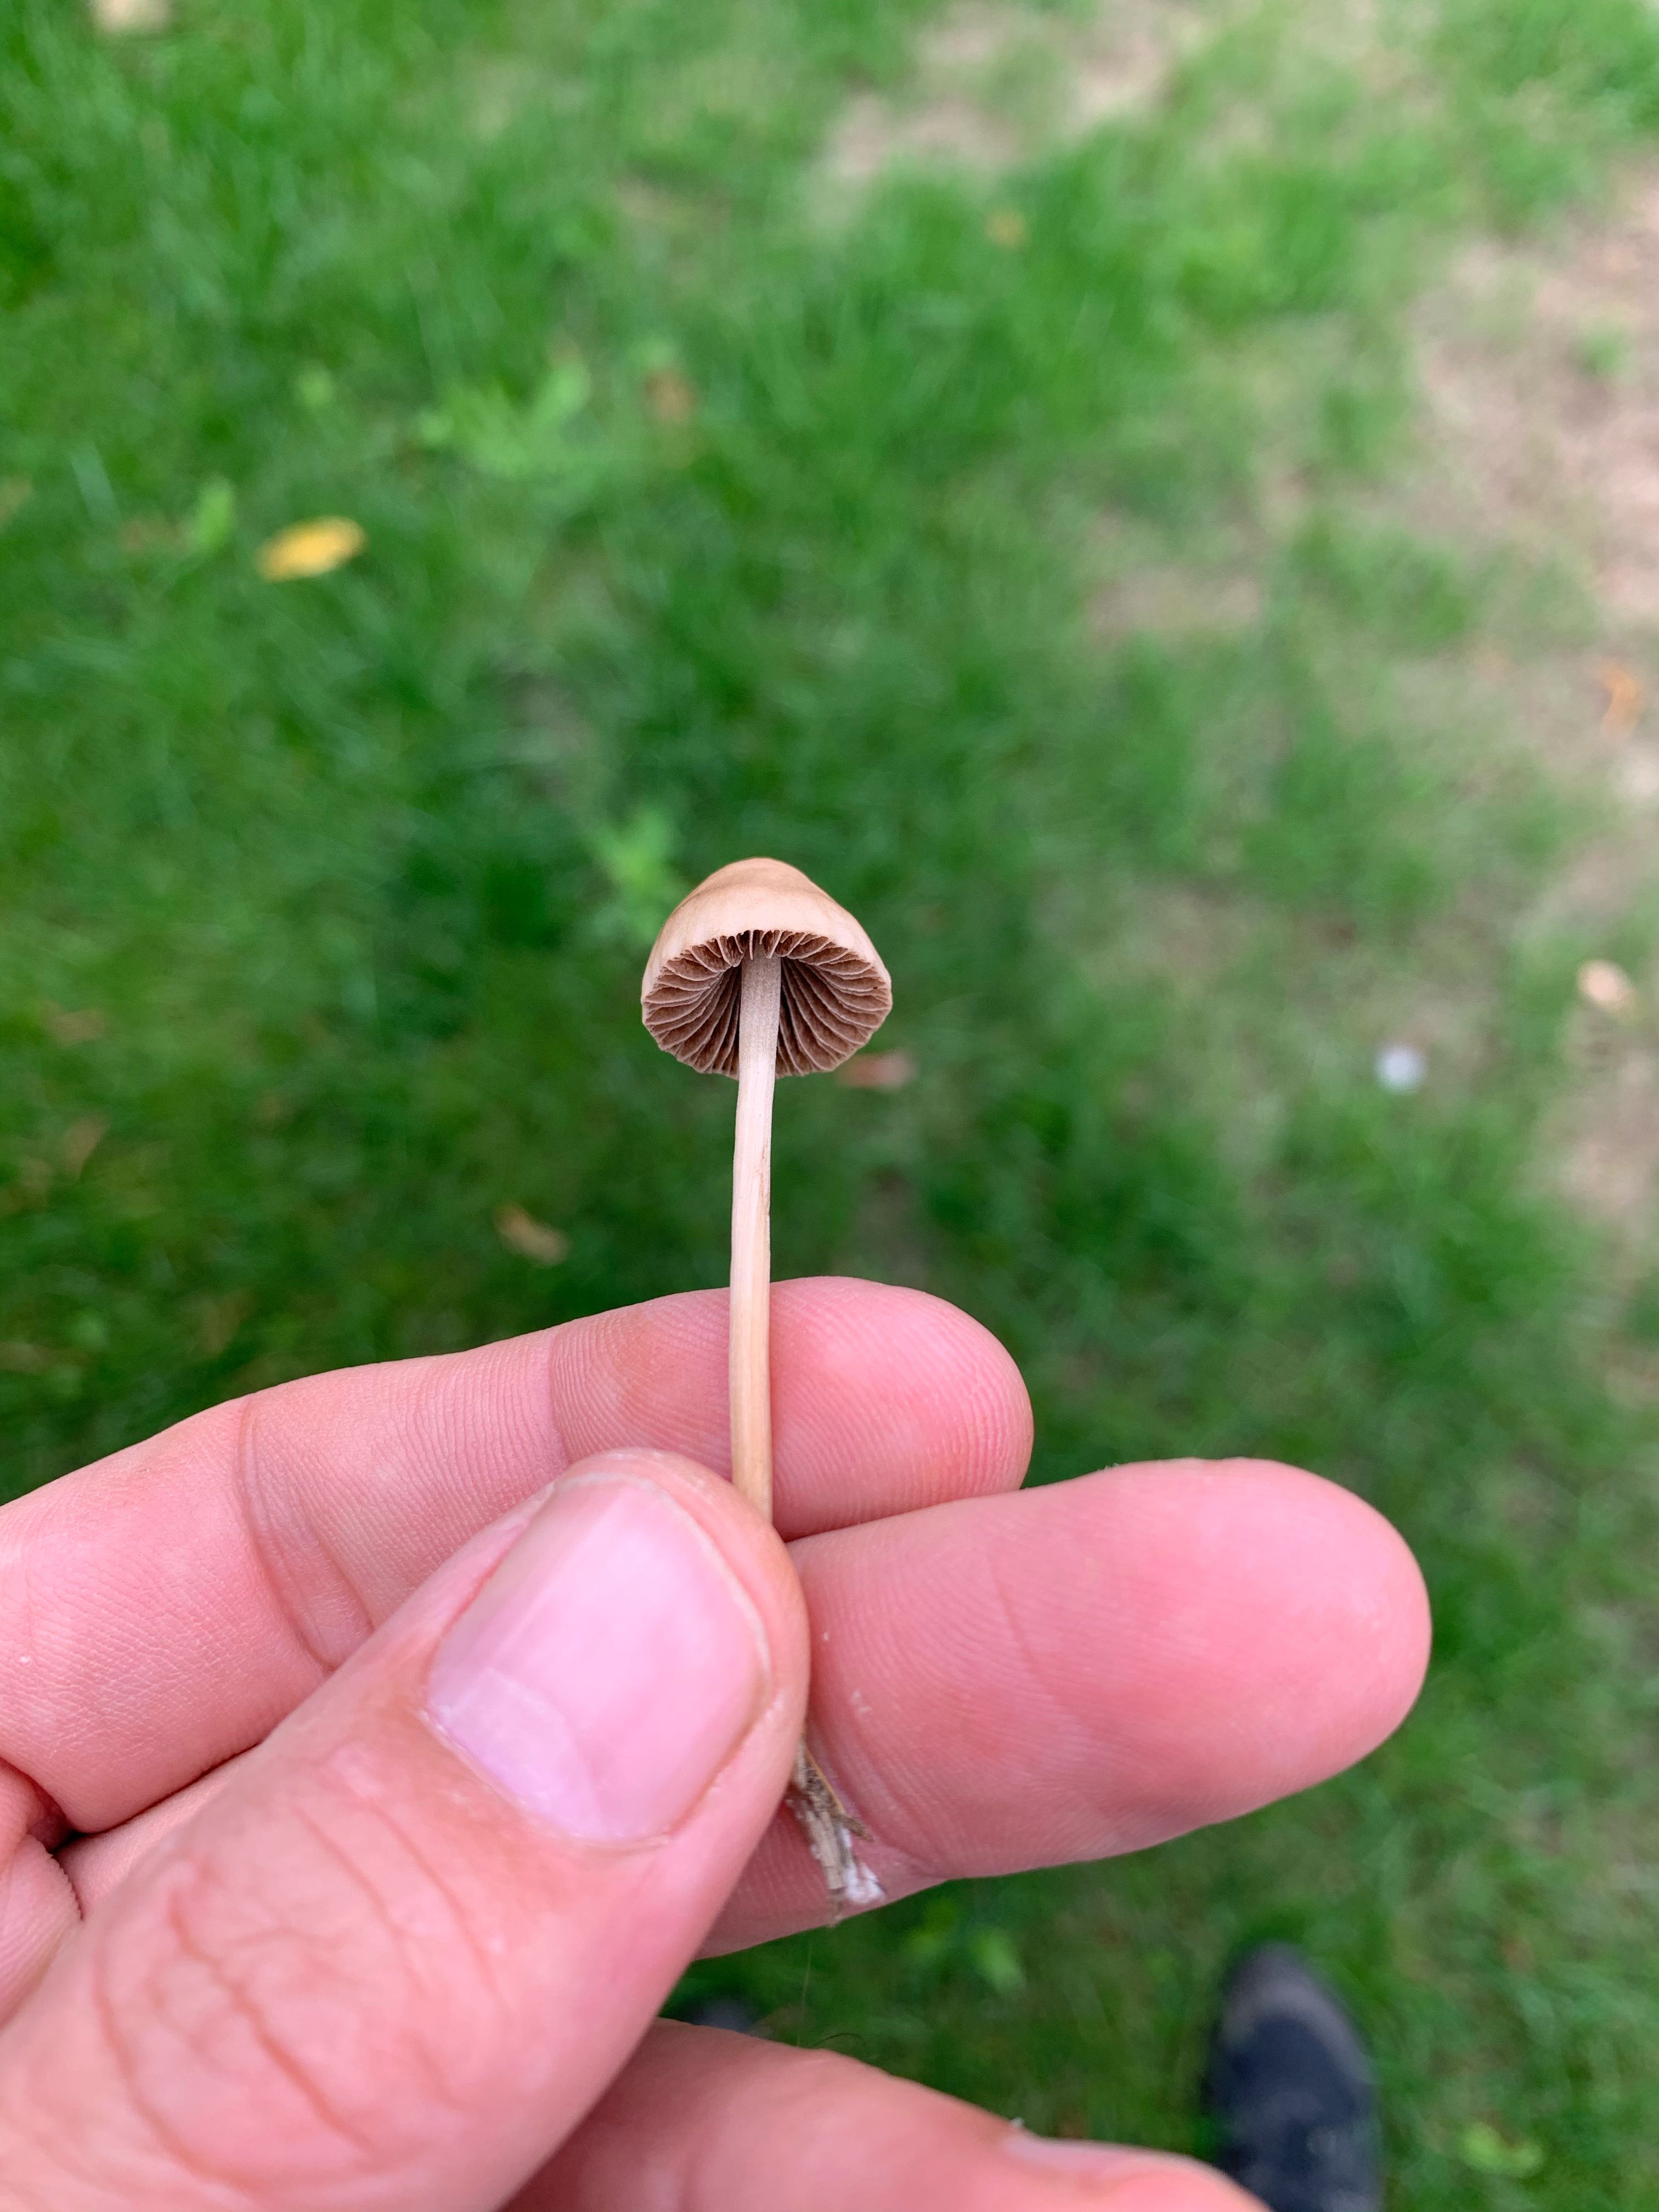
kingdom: Fungi
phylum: Basidiomycota
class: Agaricomycetes
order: Agaricales
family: Bolbitiaceae
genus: Panaeolina
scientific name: Panaeolina foenisecii
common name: høslætsvamp
